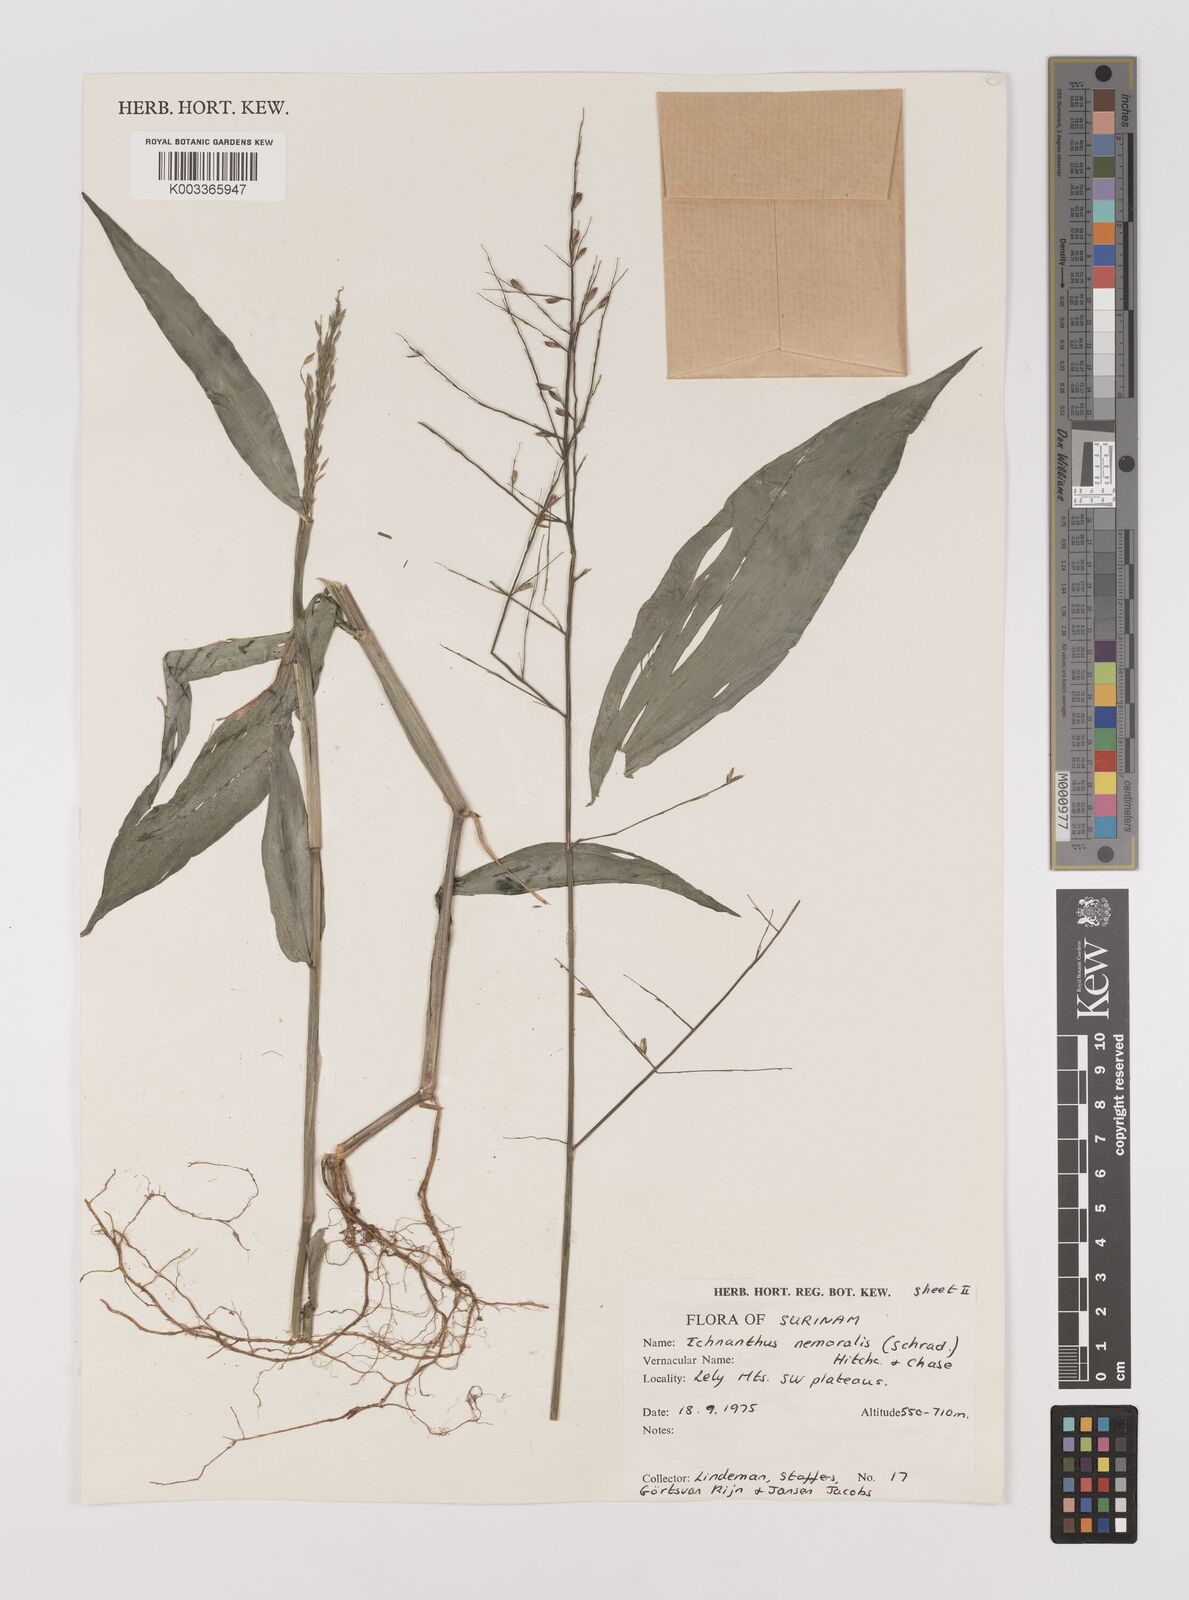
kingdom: Plantae
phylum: Tracheophyta
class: Liliopsida
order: Poales
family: Poaceae
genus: Ichnanthus
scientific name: Ichnanthus nemoralis
